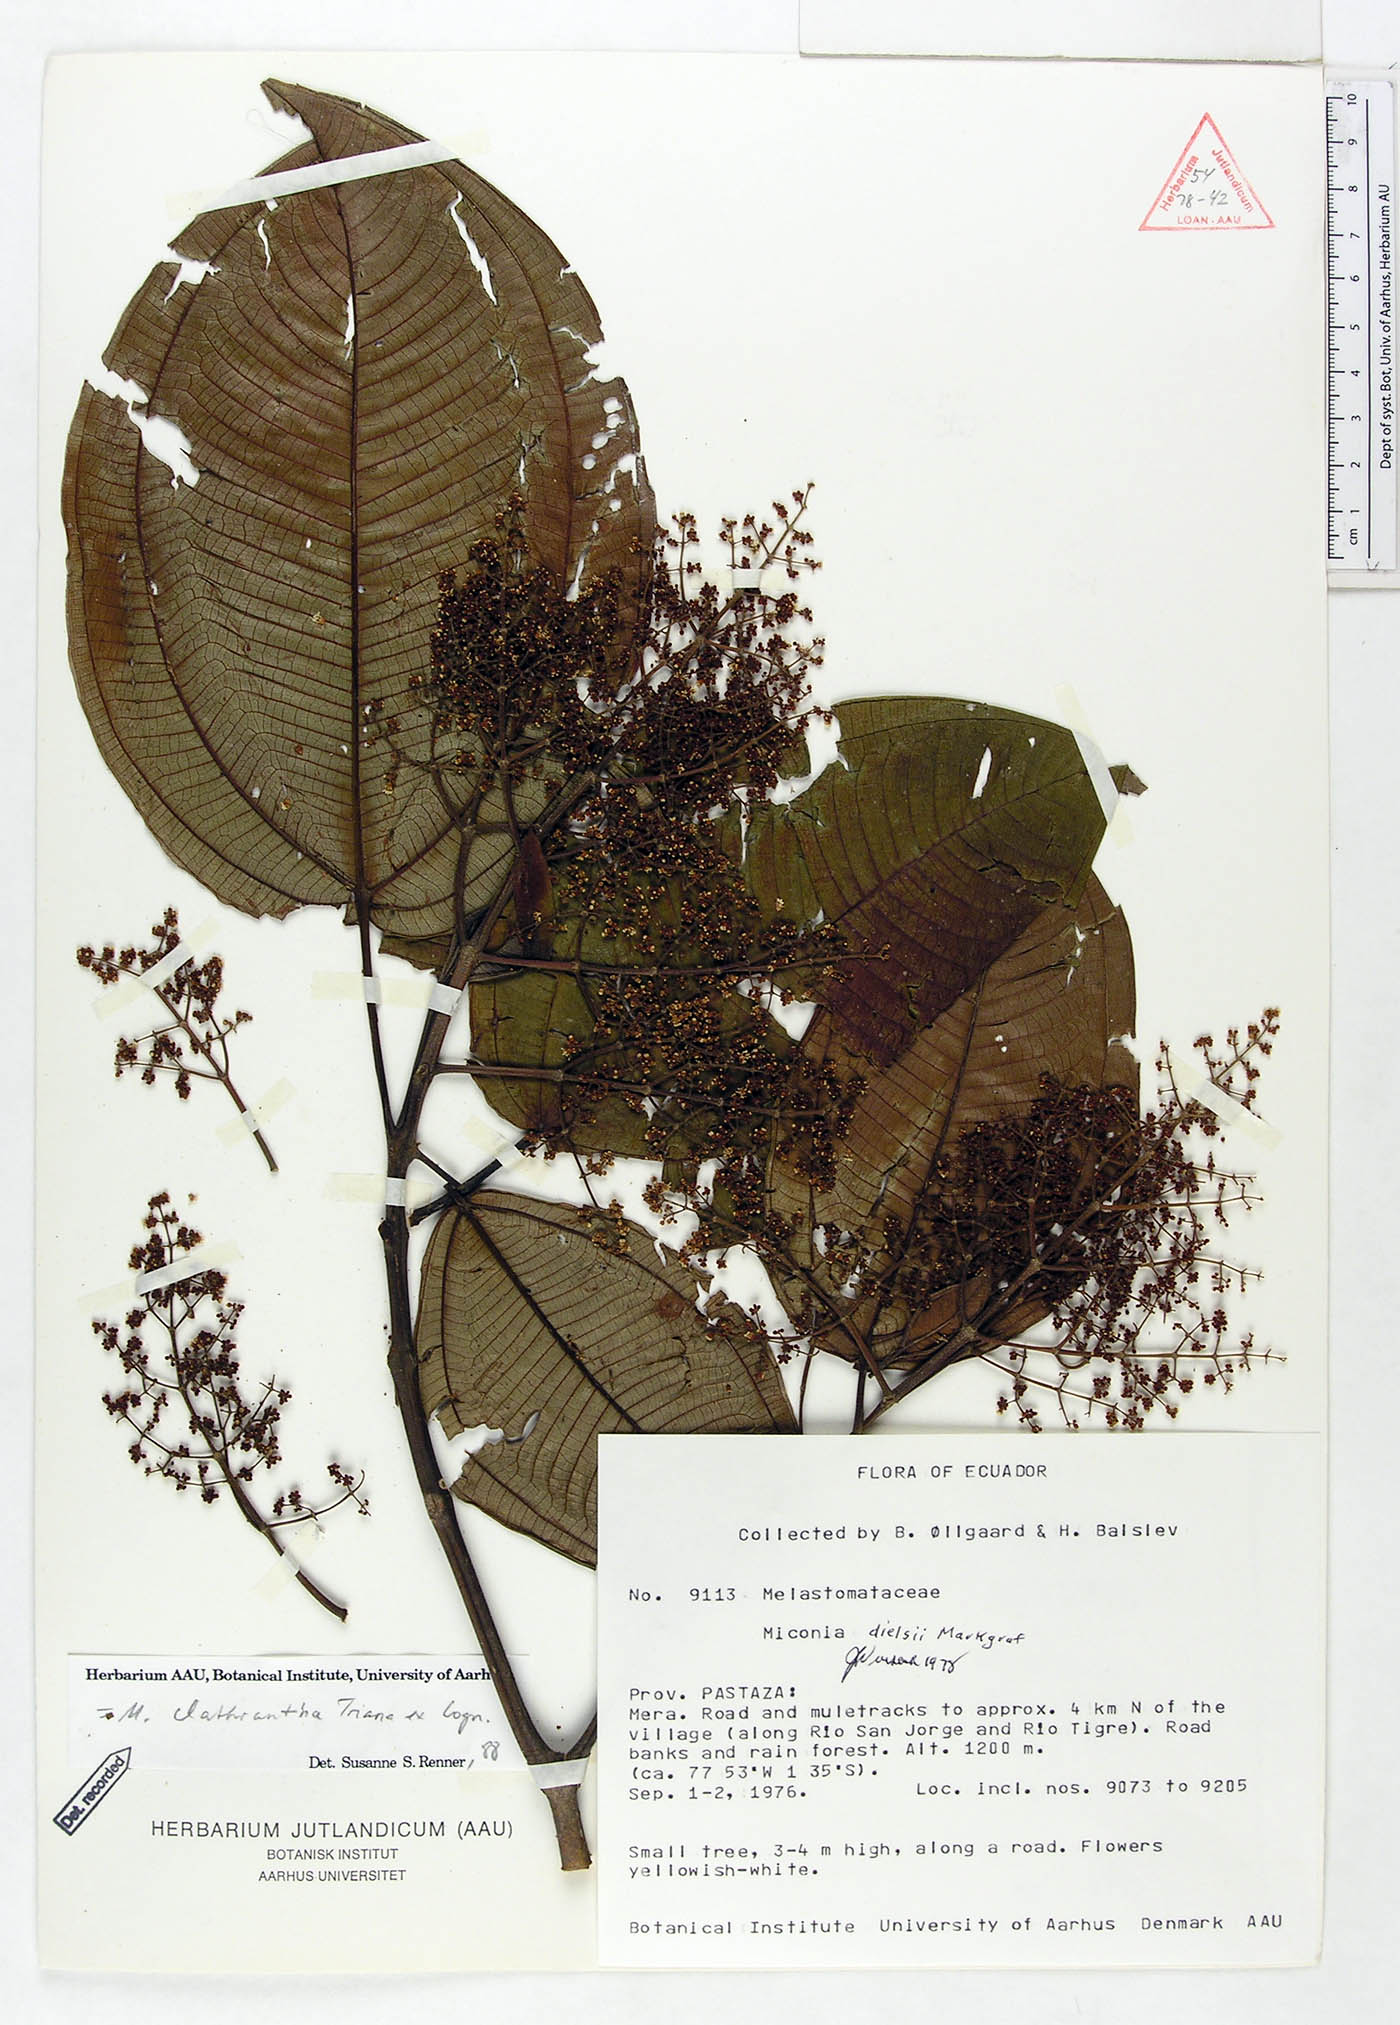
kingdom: Plantae
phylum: Tracheophyta
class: Magnoliopsida
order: Myrtales
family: Melastomataceae
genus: Miconia
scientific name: Miconia clathrantha
